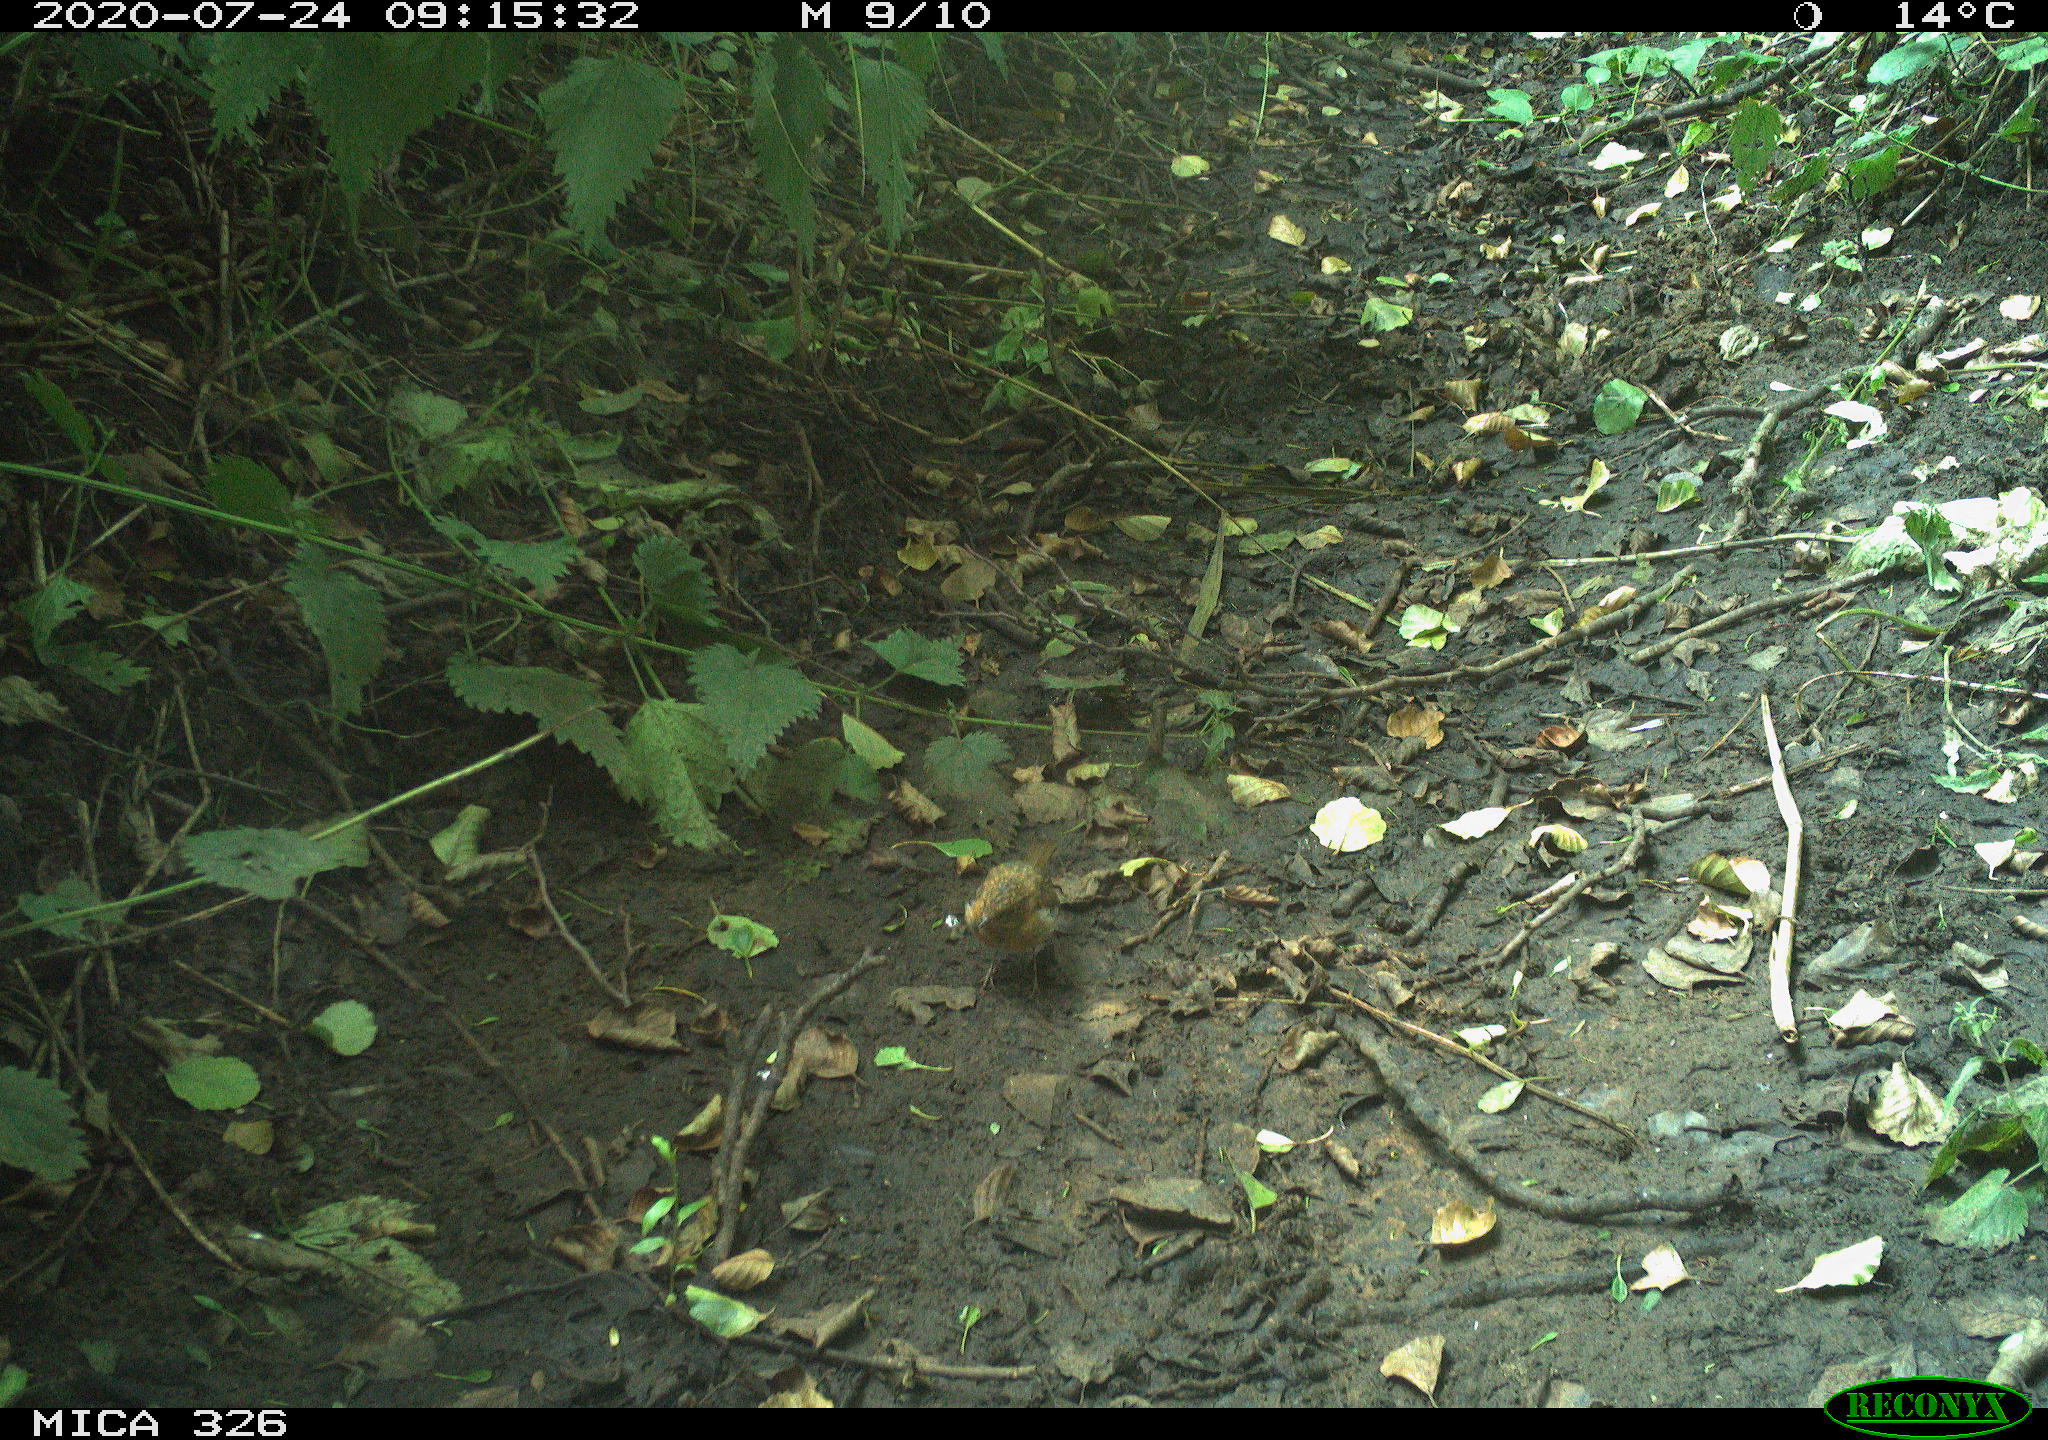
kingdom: Animalia
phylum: Chordata
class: Aves
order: Passeriformes
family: Muscicapidae
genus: Erithacus
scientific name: Erithacus rubecula
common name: European robin
